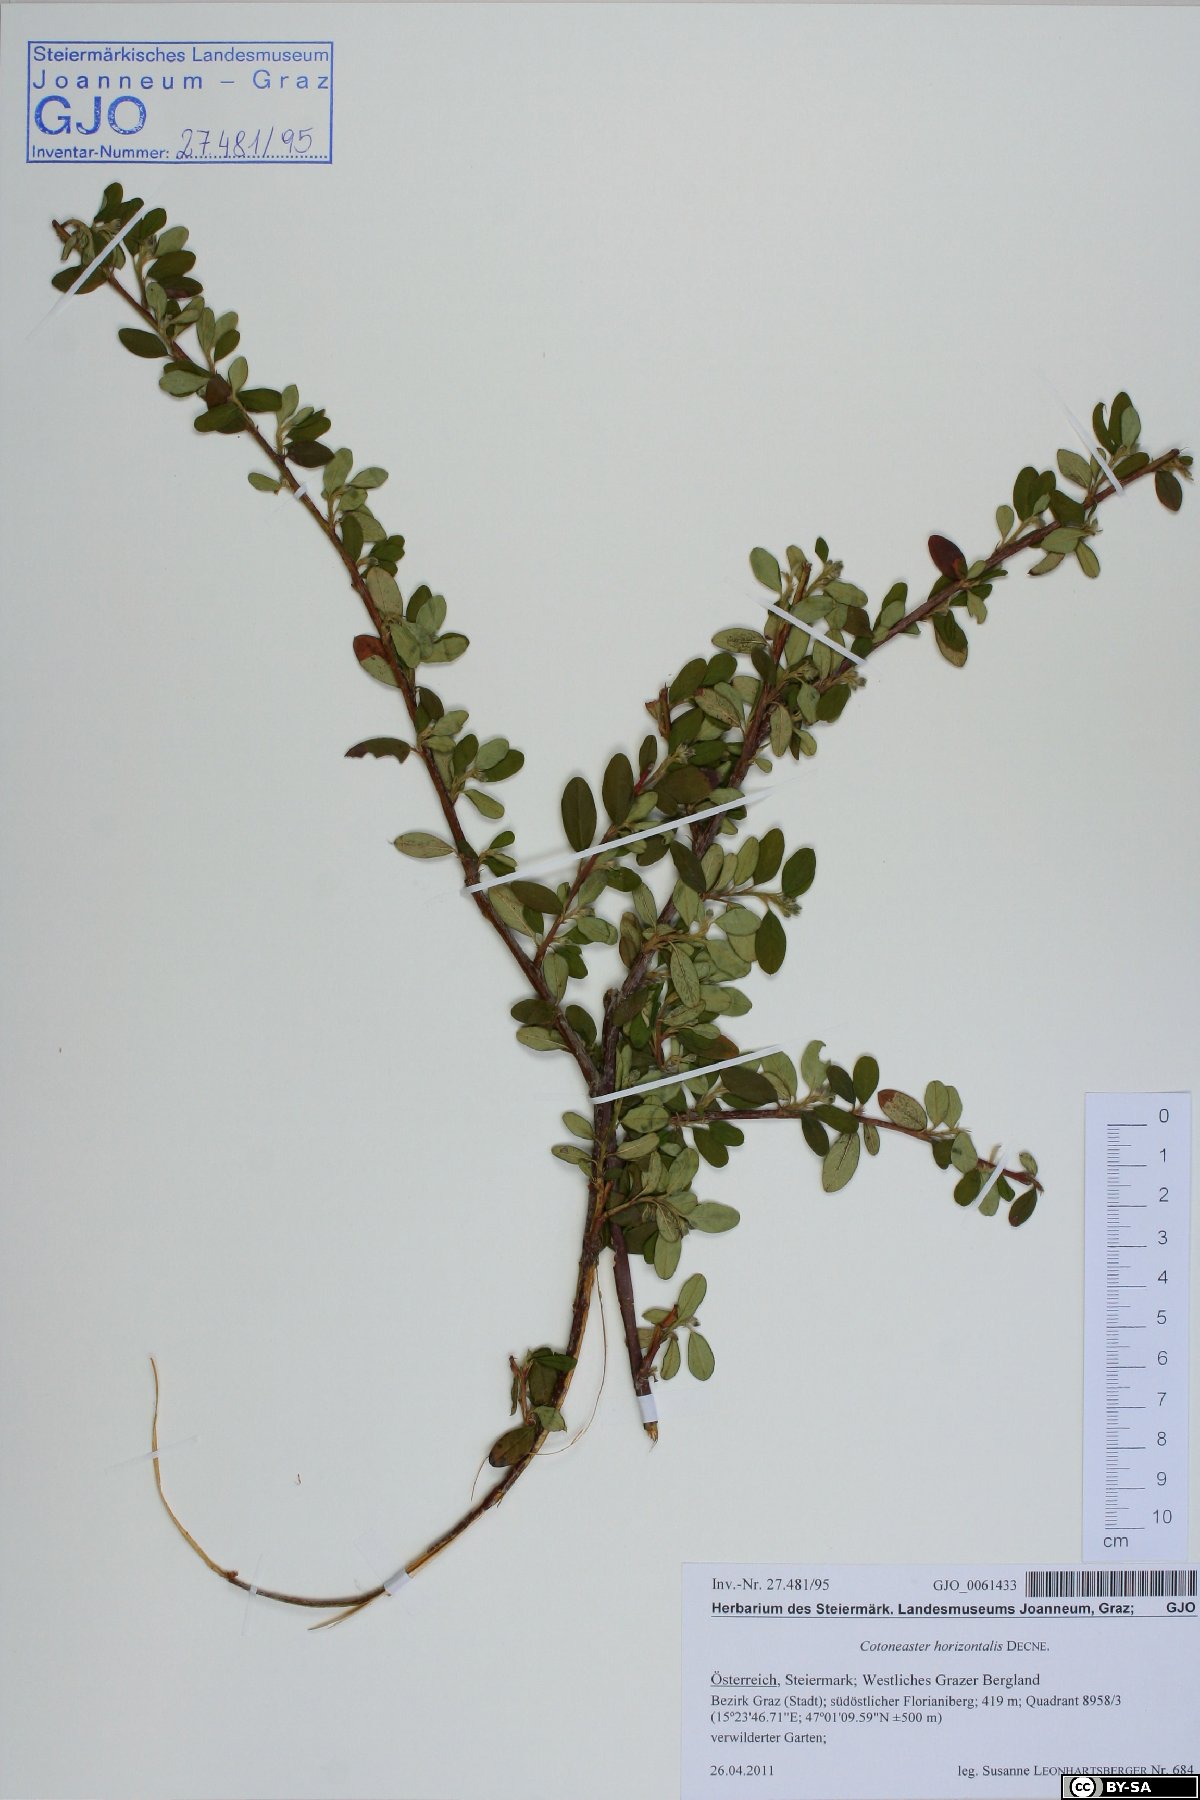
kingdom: Plantae
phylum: Tracheophyta
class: Magnoliopsida
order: Rosales
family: Rosaceae
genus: Cotoneaster
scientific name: Cotoneaster horizontalis
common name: Wall cotoneaster
